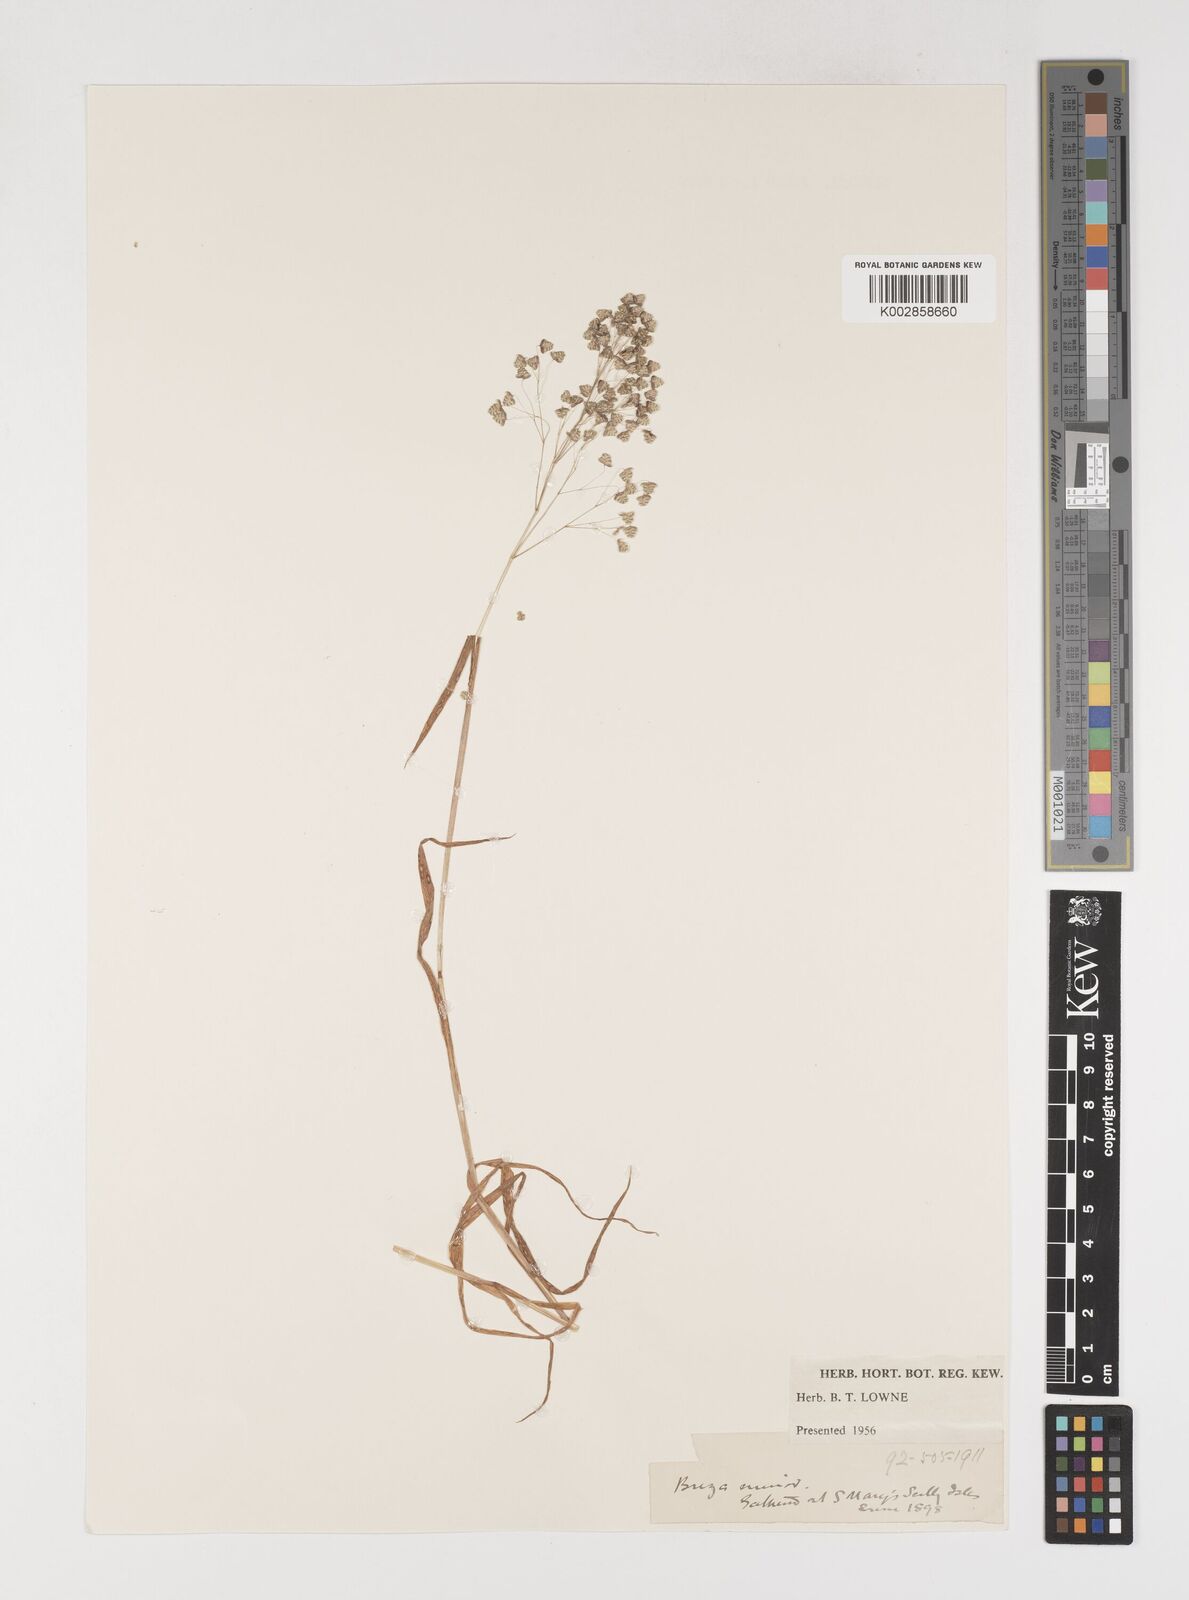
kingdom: Plantae
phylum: Tracheophyta
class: Liliopsida
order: Poales
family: Poaceae
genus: Briza
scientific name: Briza minor
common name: Lesser quaking-grass
